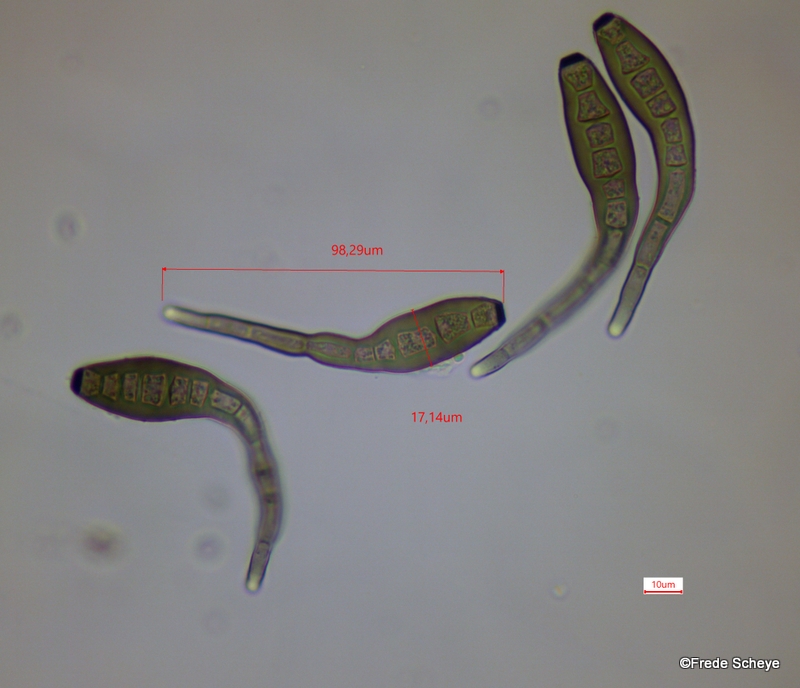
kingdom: Fungi
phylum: Ascomycota
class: Dothideomycetes
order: Pleosporales
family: Massarinaceae
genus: Helminthosporium
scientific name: Helminthosporium
